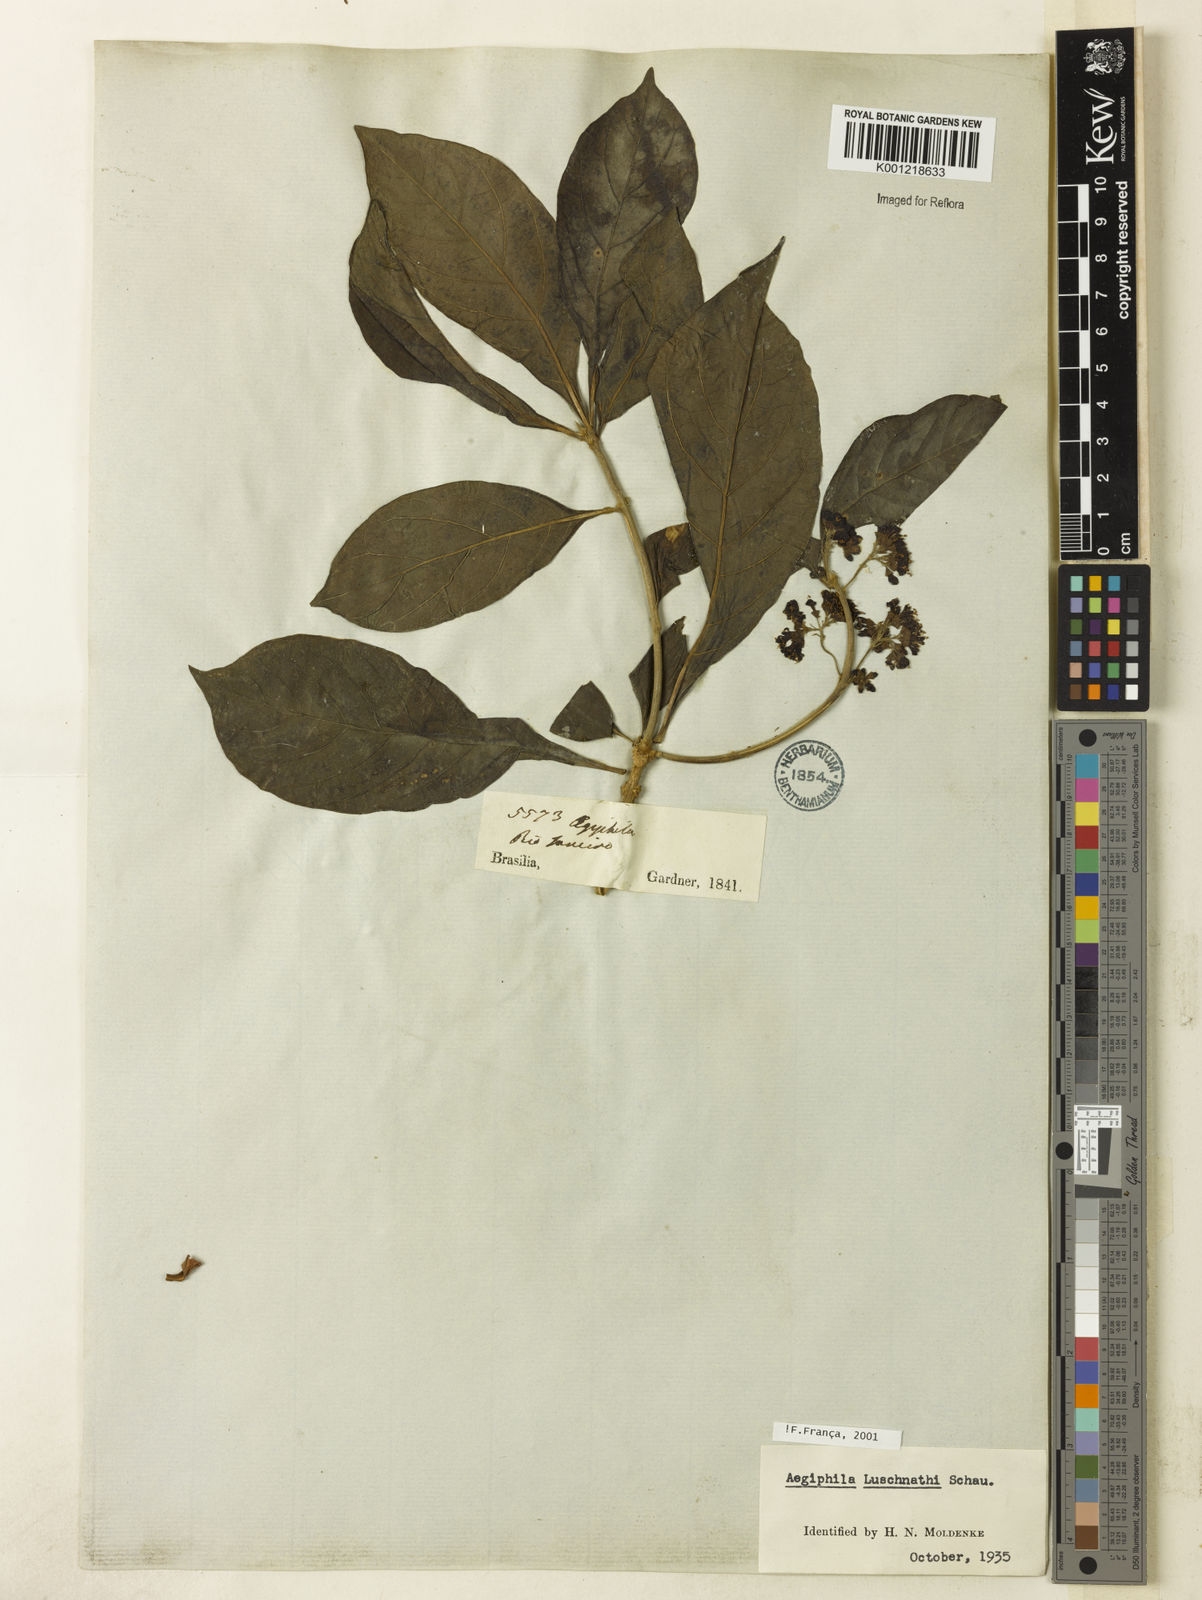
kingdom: Plantae
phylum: Tracheophyta
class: Magnoliopsida
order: Lamiales
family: Lamiaceae
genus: Aegiphila
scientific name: Aegiphila luschnathii
